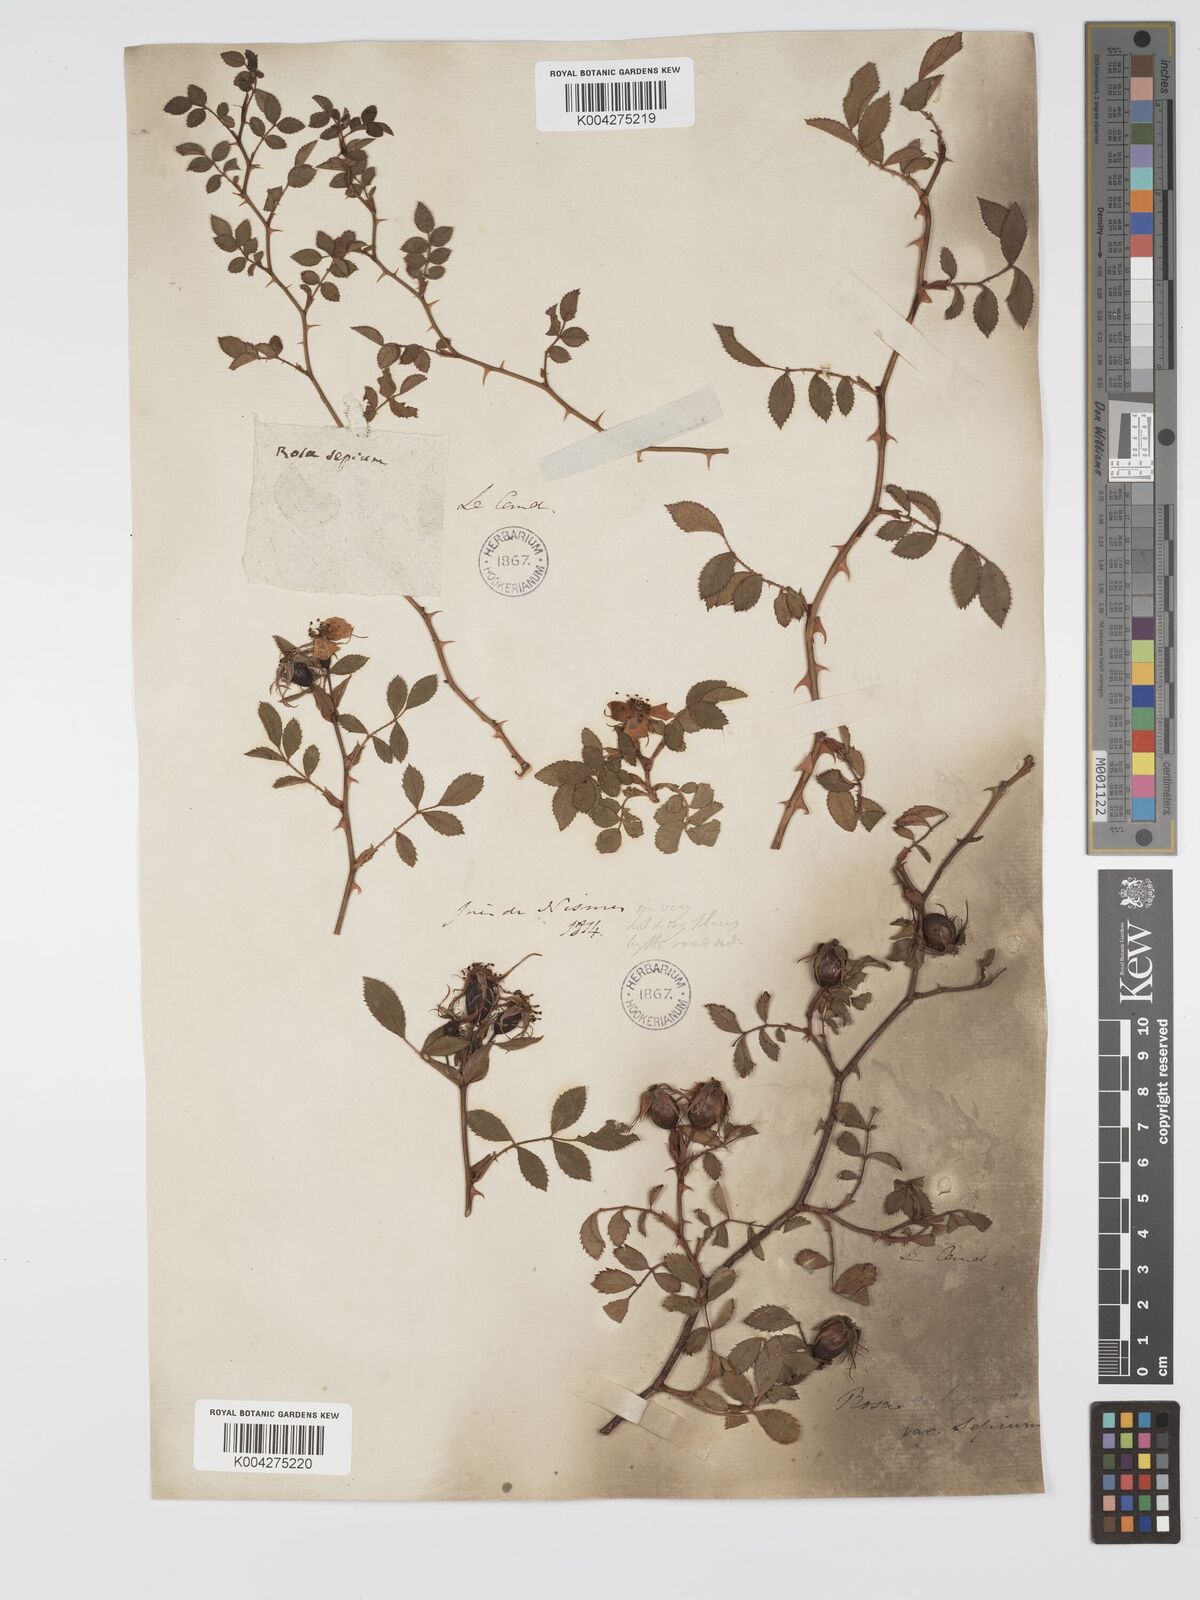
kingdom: Plantae
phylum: Tracheophyta
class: Magnoliopsida
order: Rosales
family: Rosaceae
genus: Rosa
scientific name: Rosa
